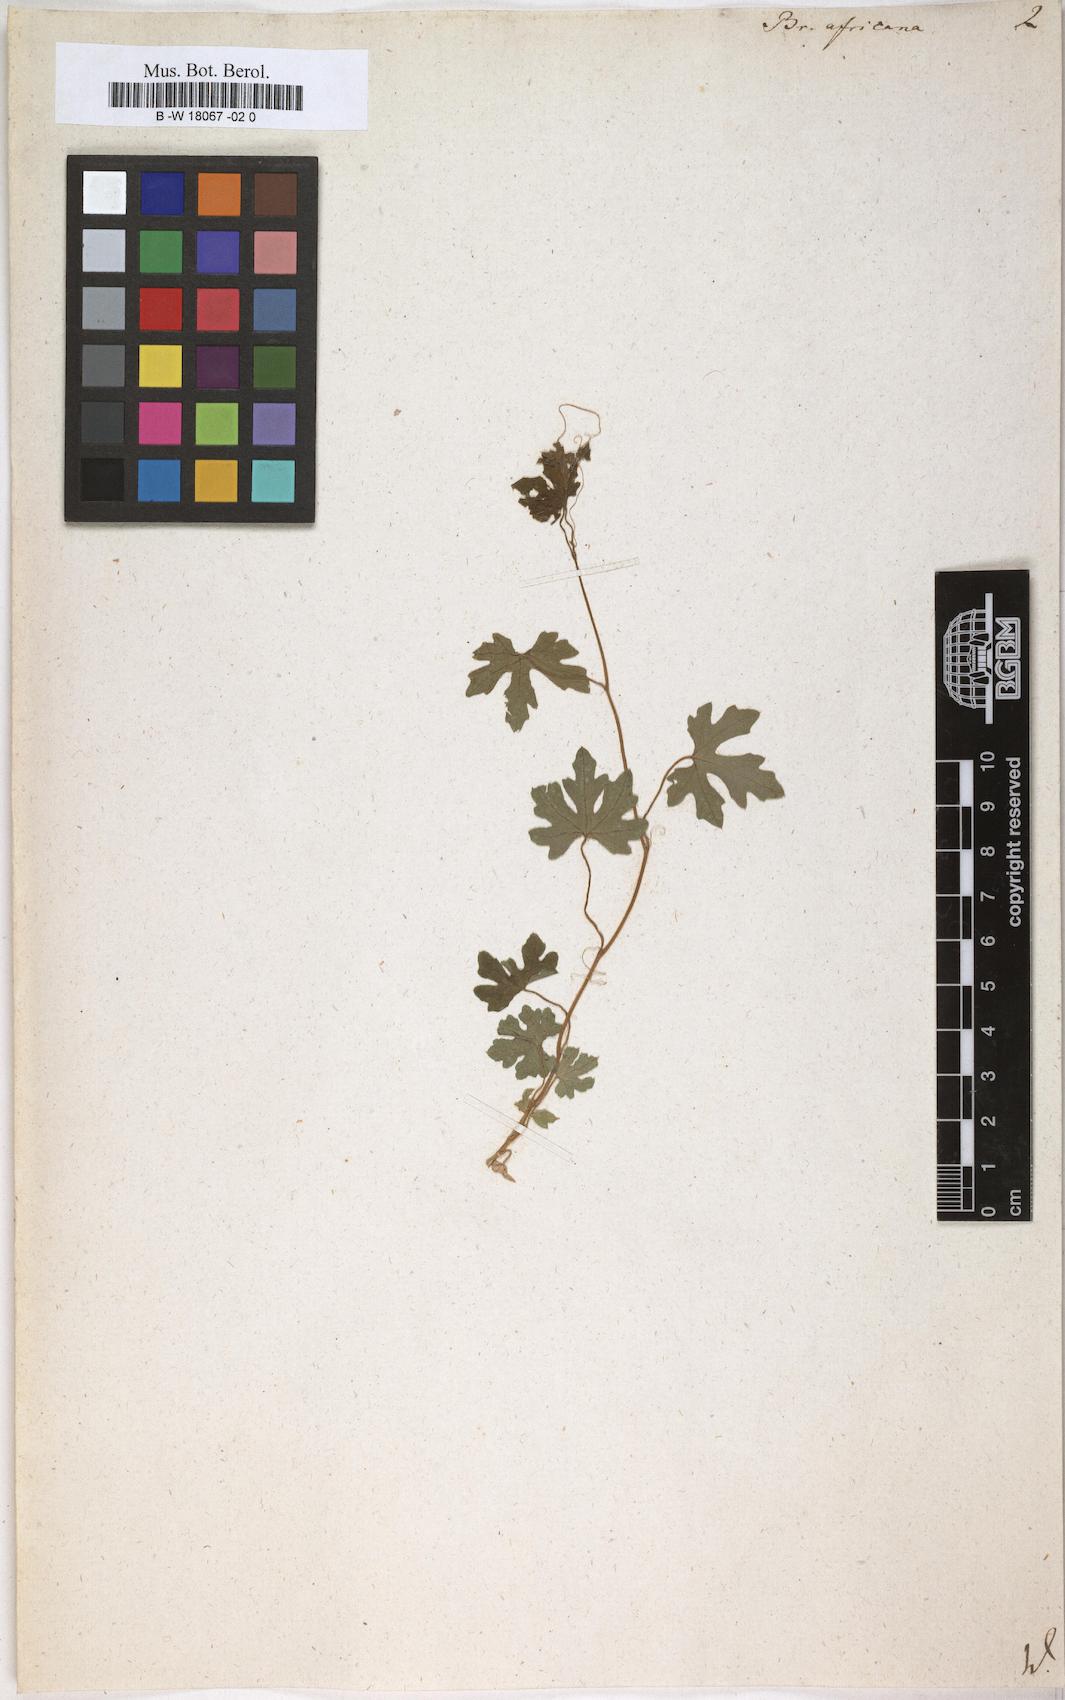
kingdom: Plantae
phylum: Tracheophyta
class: Magnoliopsida
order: Cucurbitales
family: Cucurbitaceae
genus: Bryonia
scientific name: Bryonia africana
